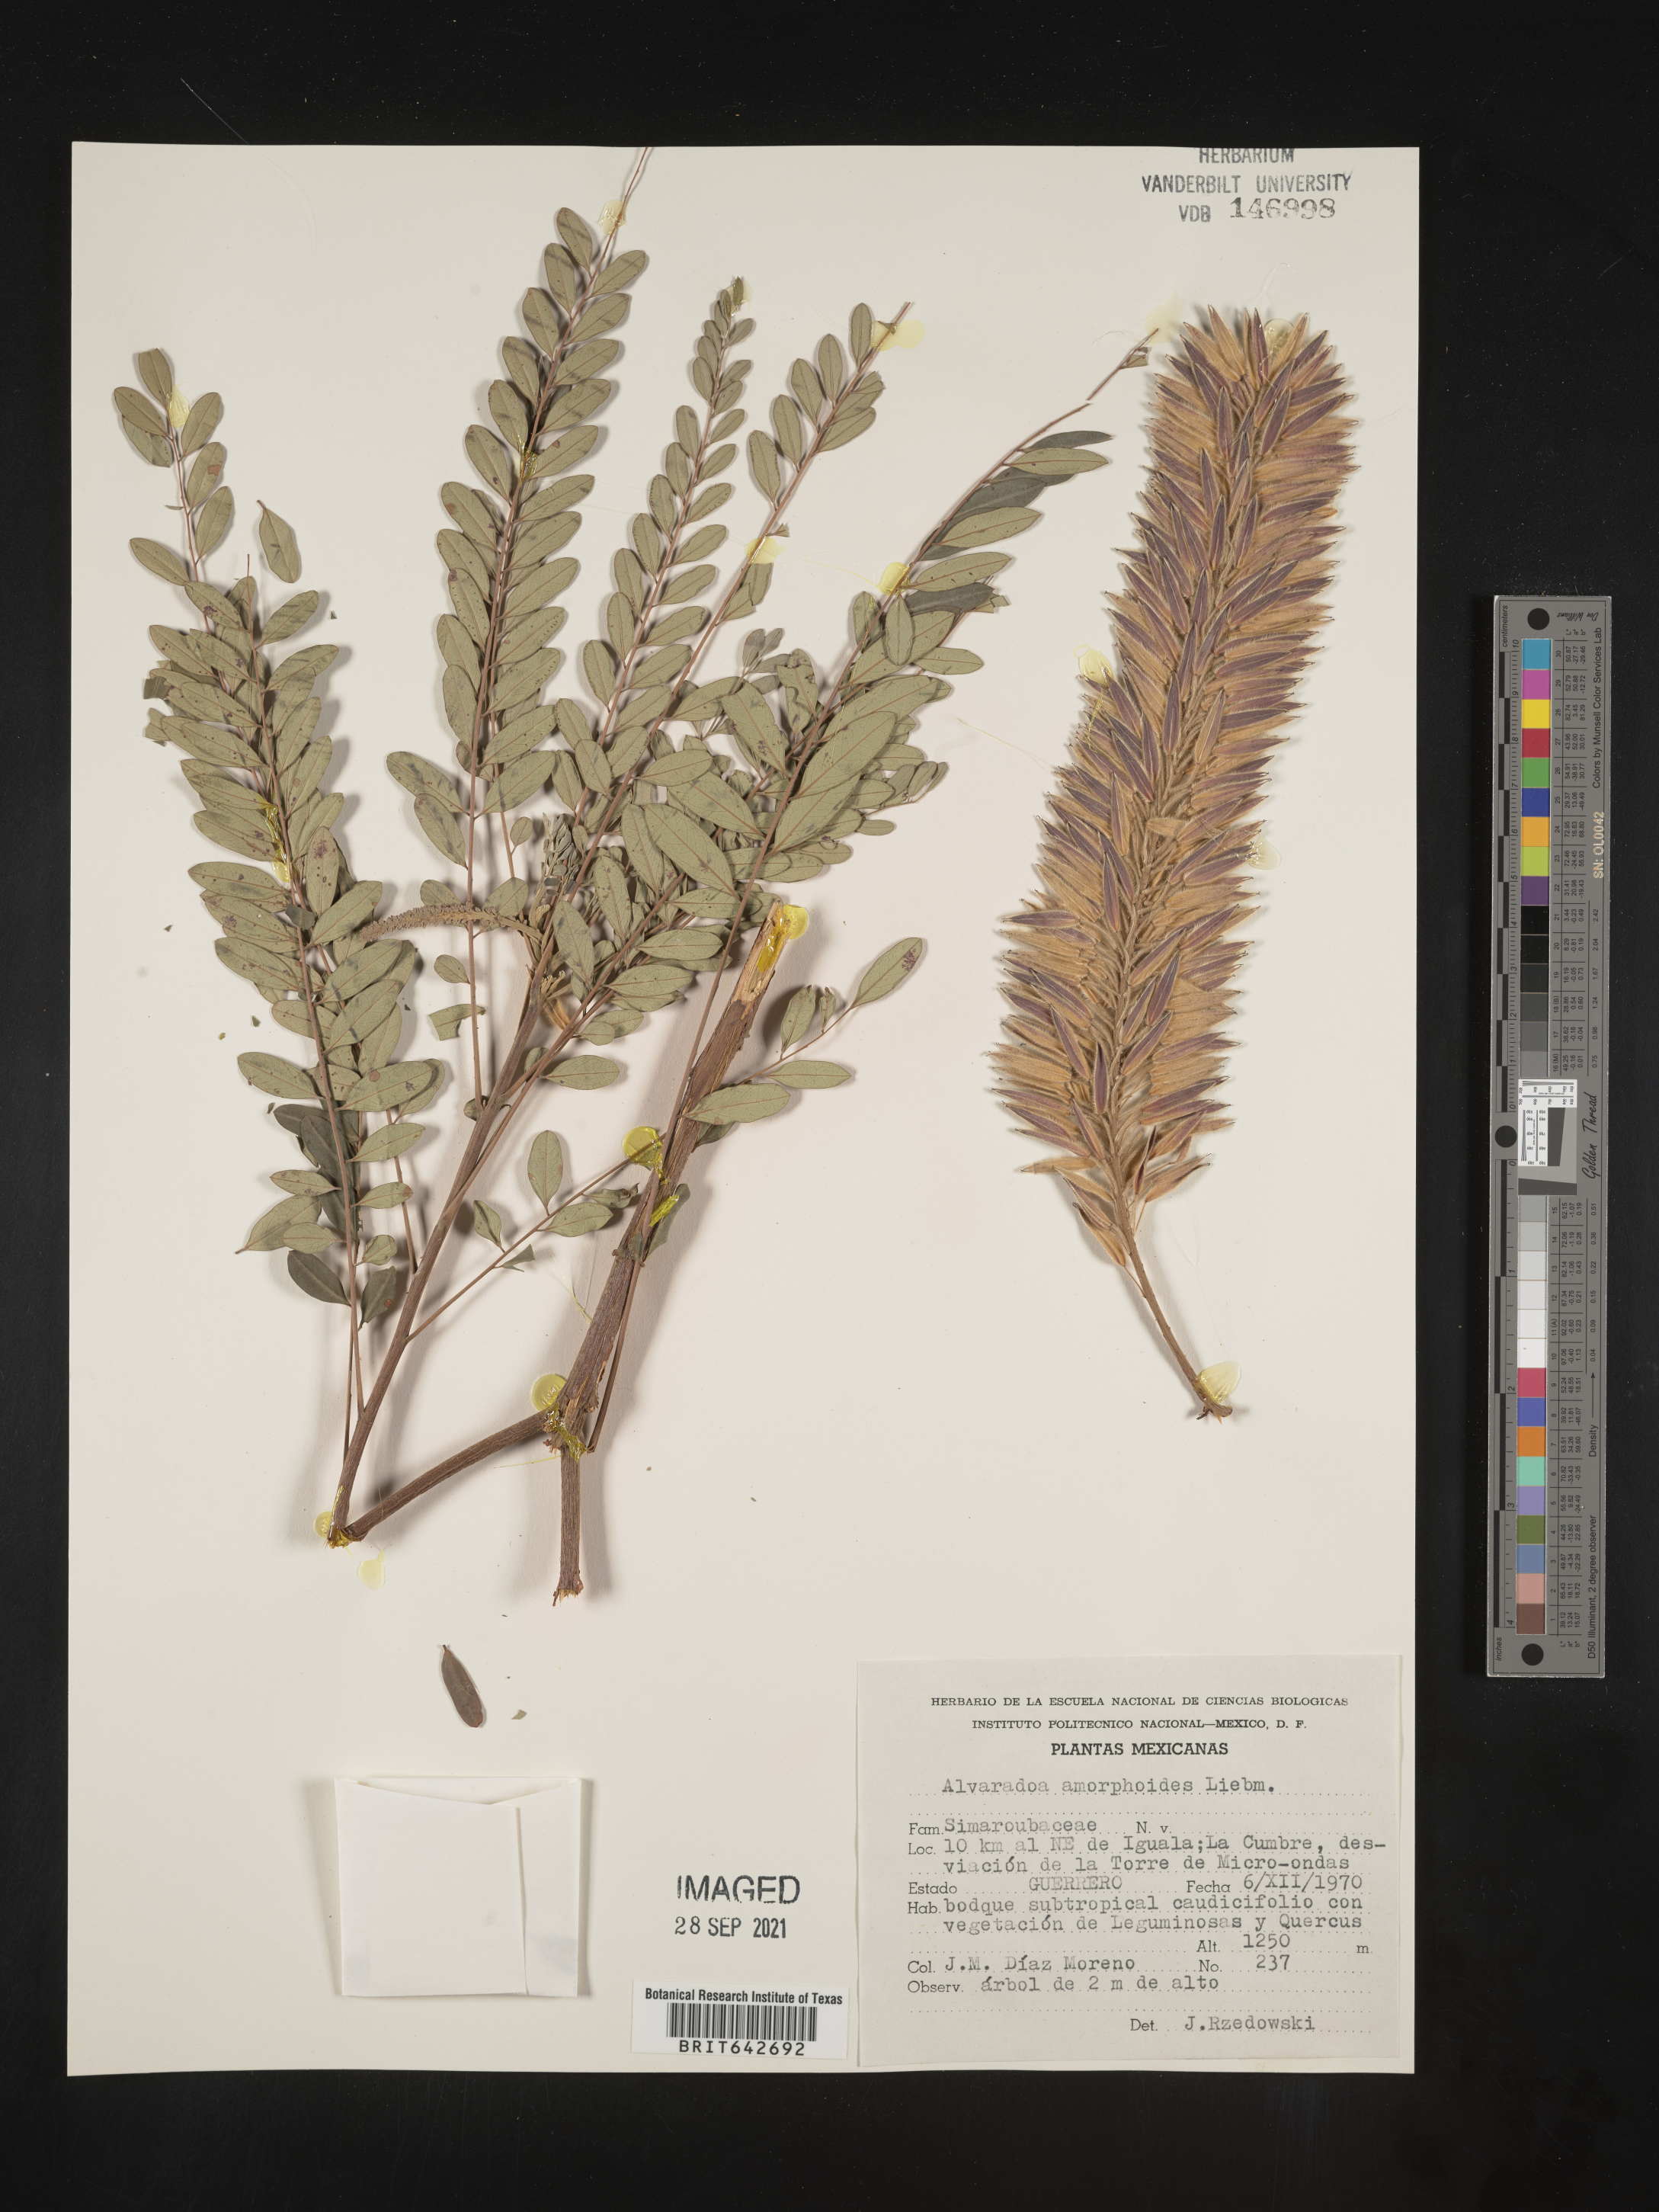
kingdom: Plantae
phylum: Tracheophyta
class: Magnoliopsida
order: Picramniales
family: Picramniaceae
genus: Alvaradoa
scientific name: Alvaradoa
